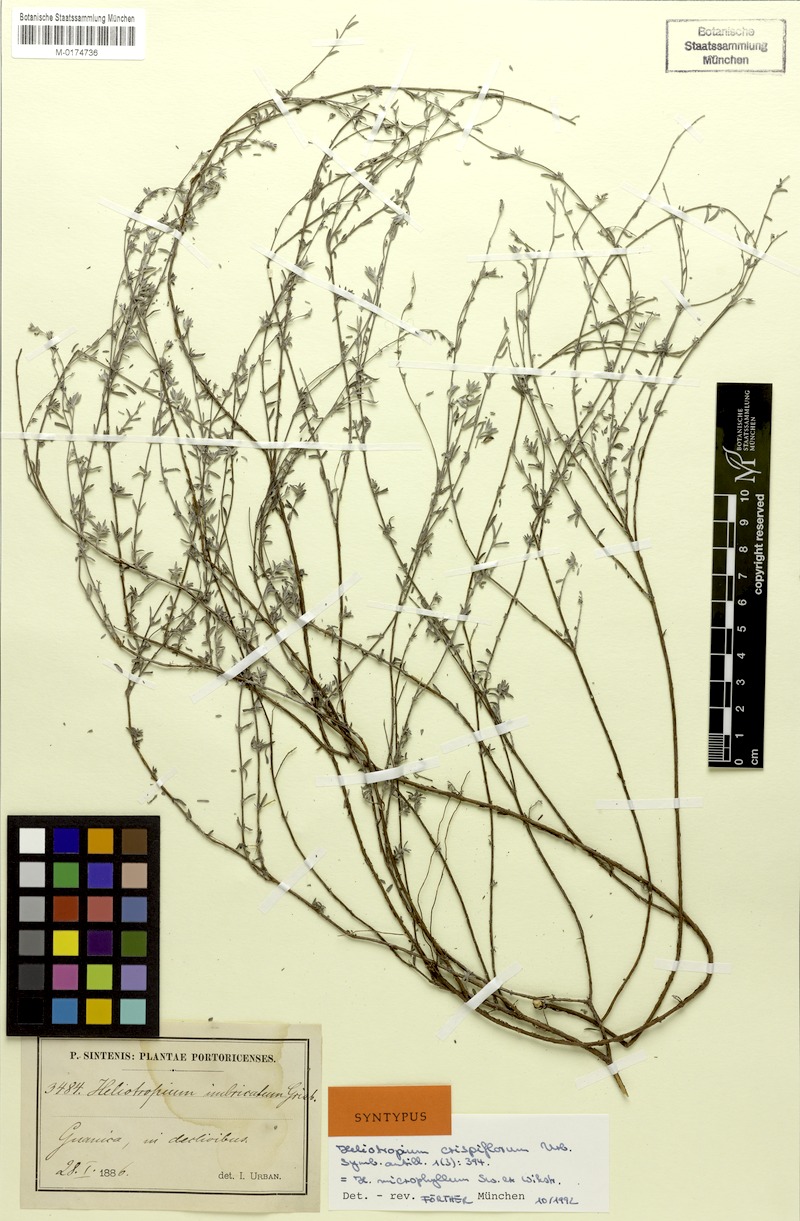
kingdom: Plantae
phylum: Tracheophyta
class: Magnoliopsida
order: Boraginales
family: Heliotropiaceae
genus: Euploca
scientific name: Euploca microphylla
